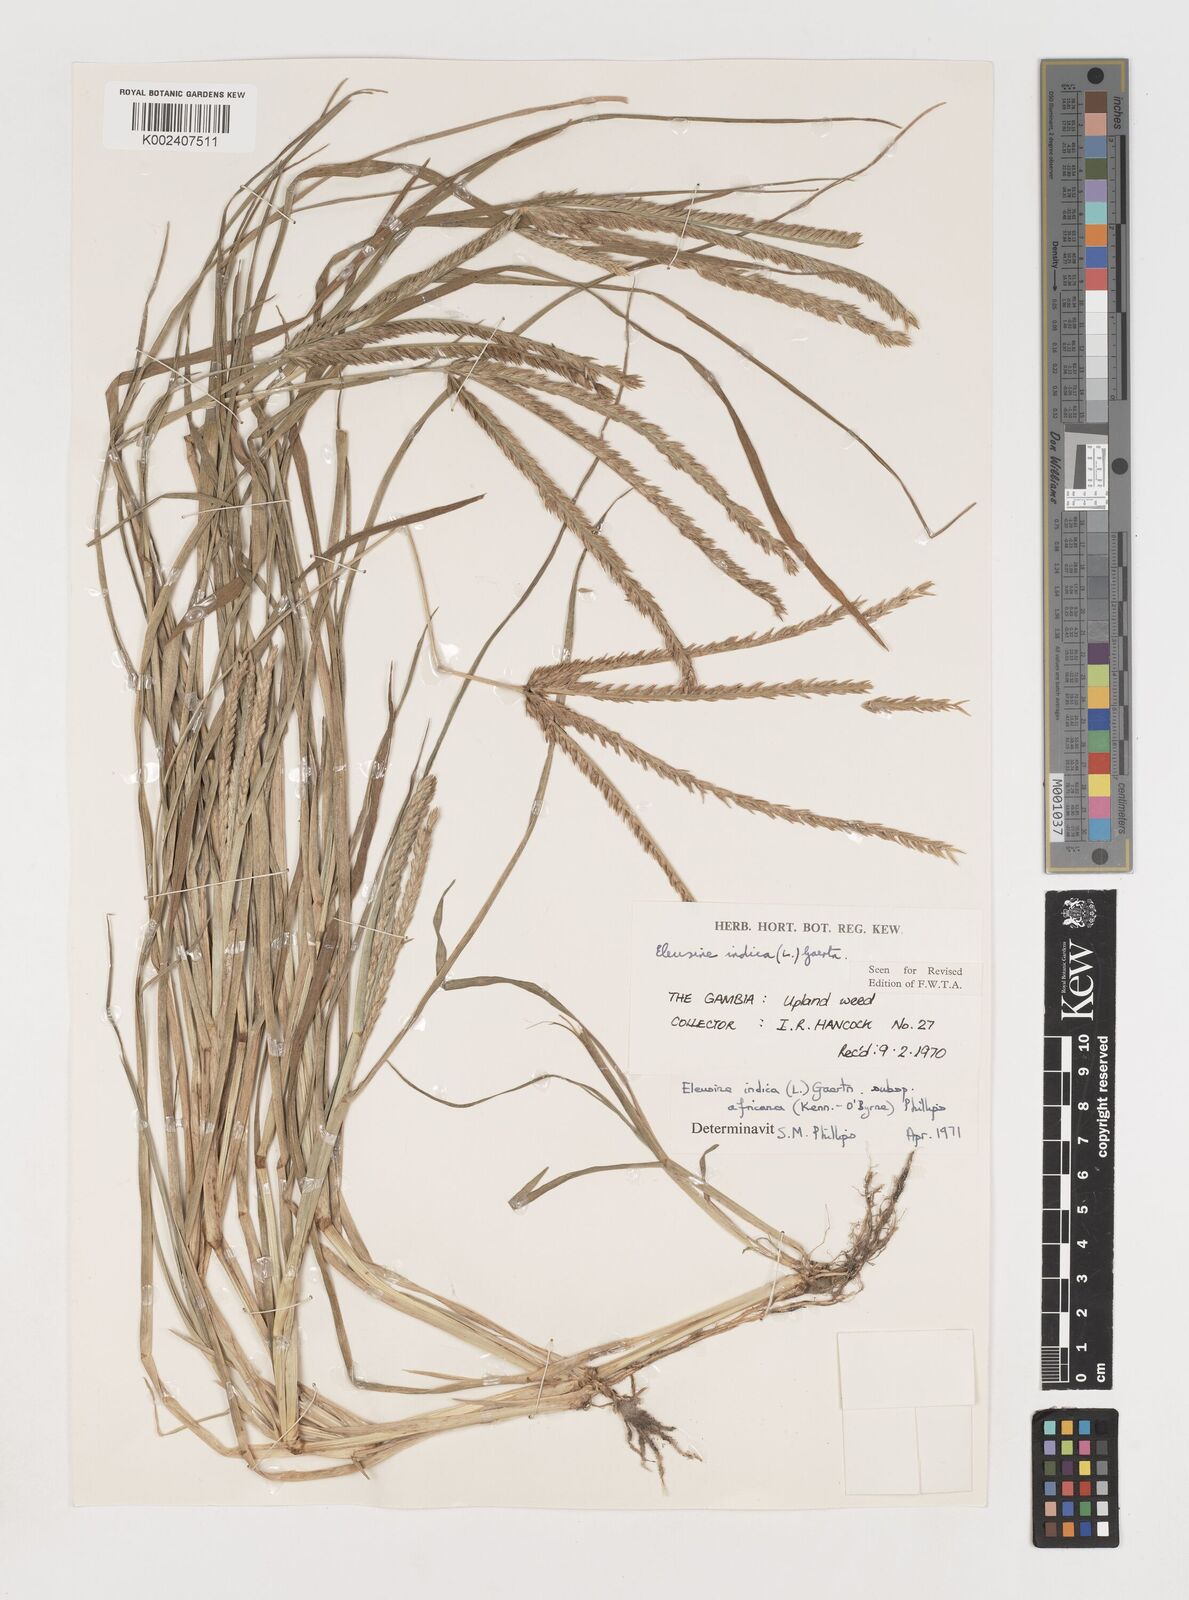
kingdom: Plantae
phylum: Tracheophyta
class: Liliopsida
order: Poales
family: Poaceae
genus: Eleusine
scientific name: Eleusine africana
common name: Wild african finger millet
